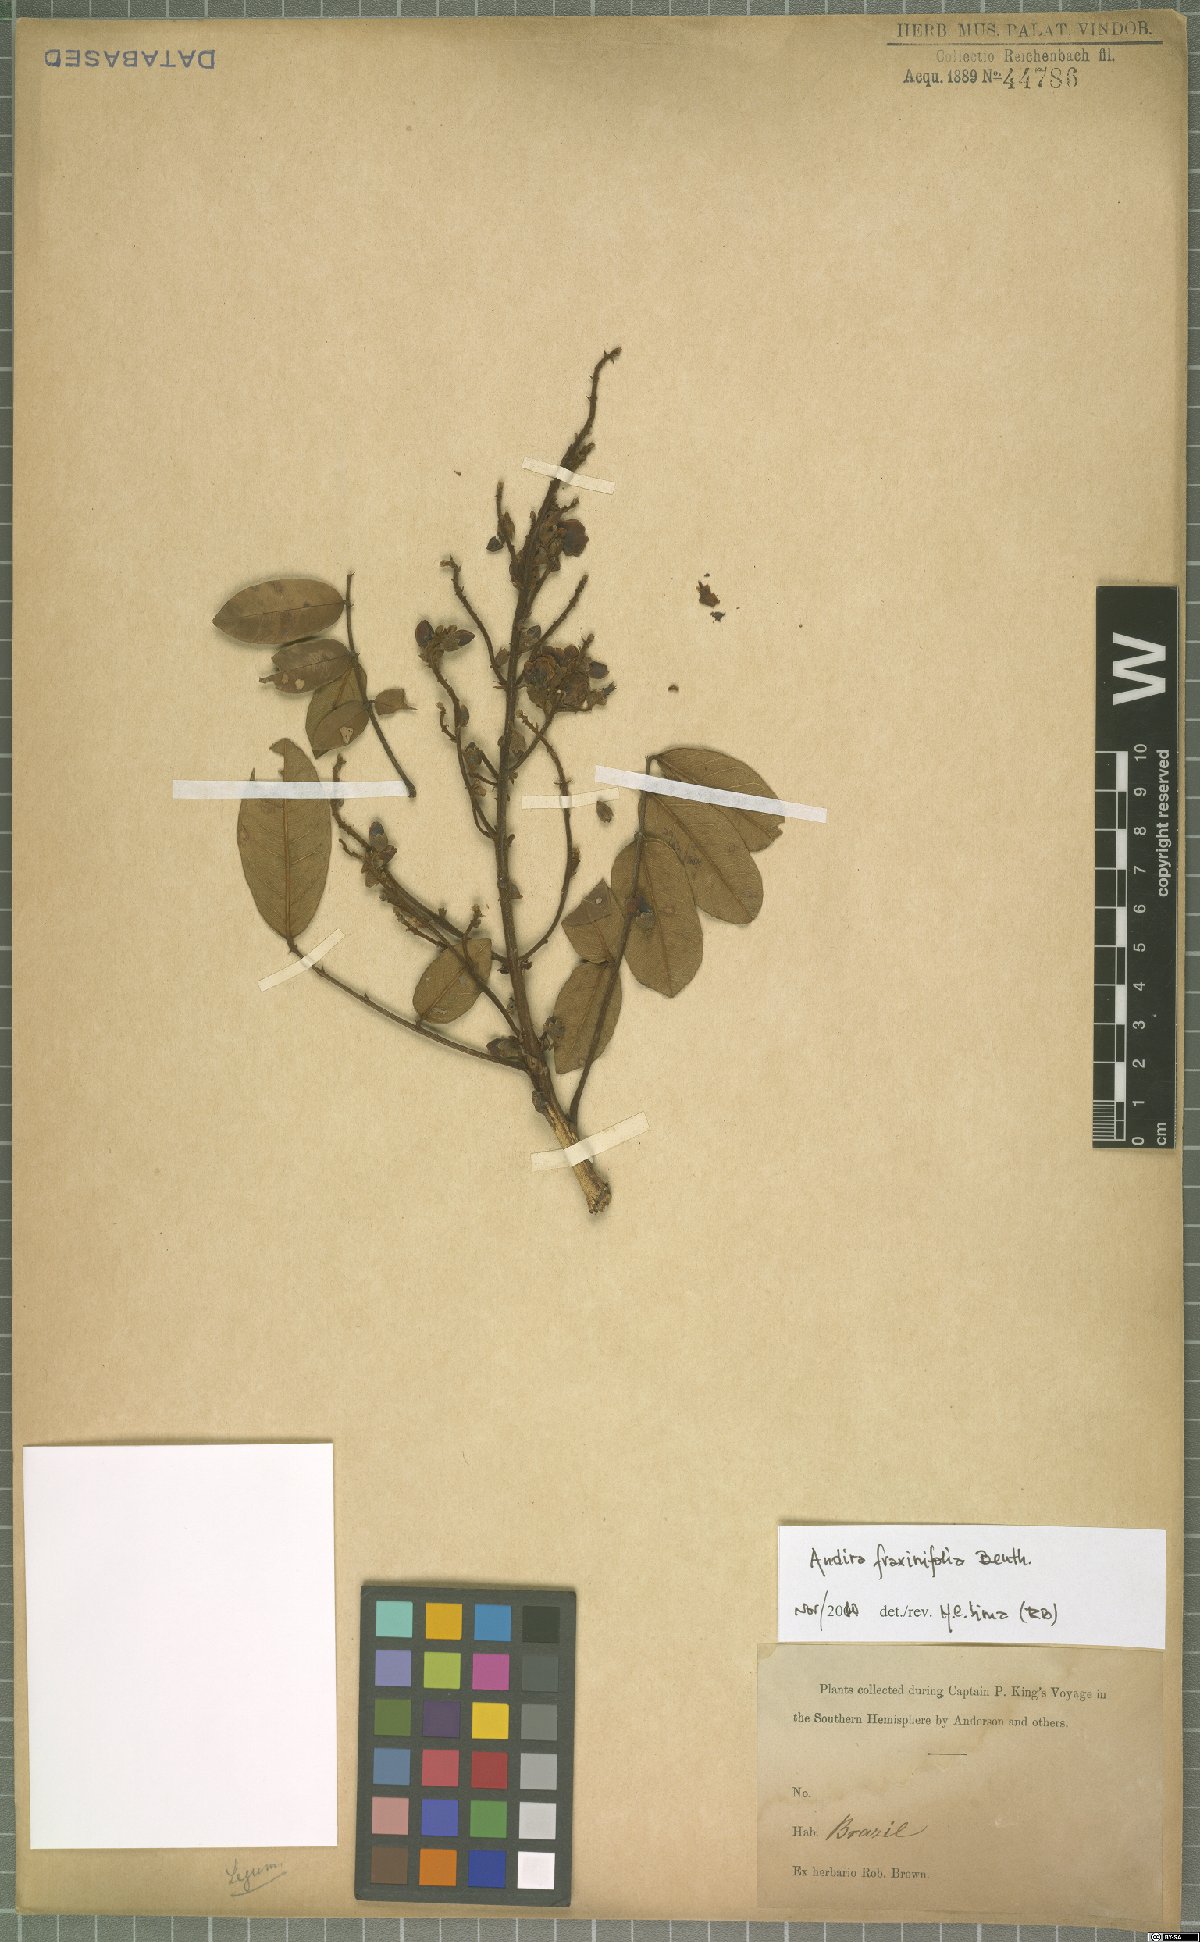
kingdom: Plantae
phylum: Tracheophyta
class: Magnoliopsida
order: Fabales
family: Fabaceae
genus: Andira
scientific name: Andira fraxinifolia
